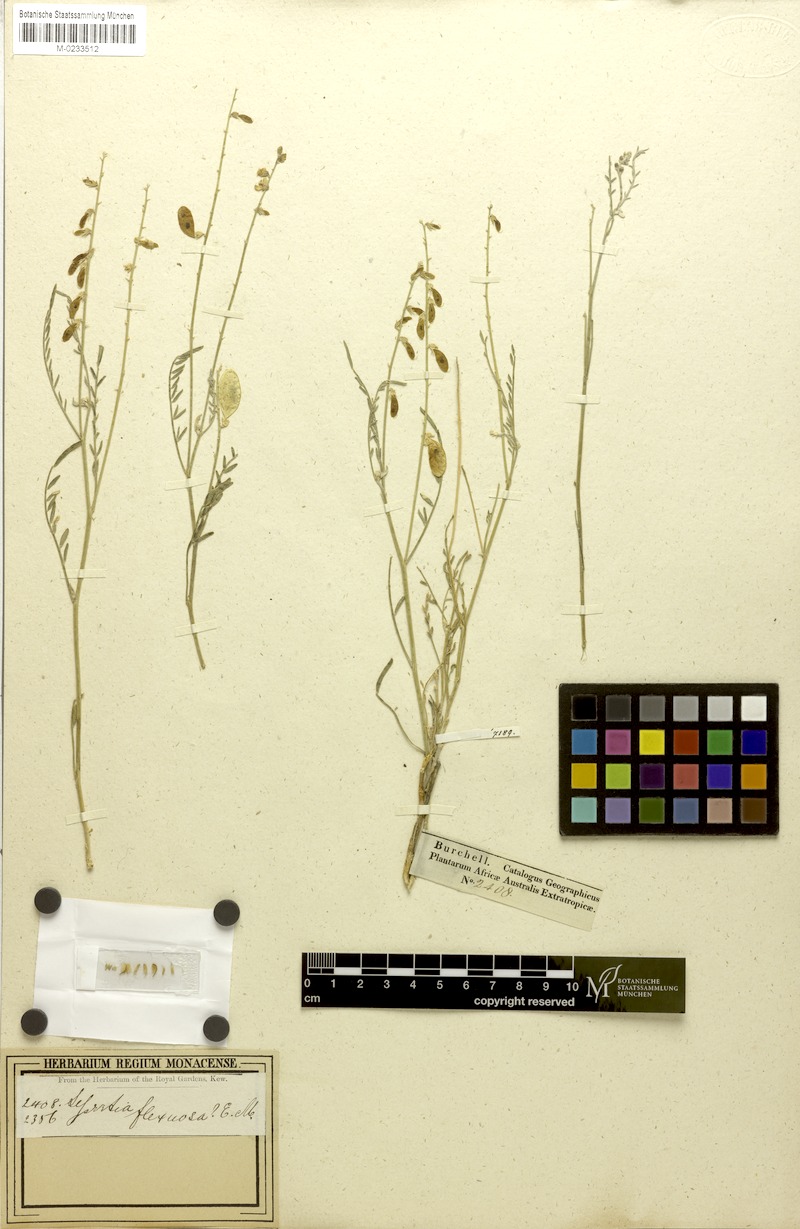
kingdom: Plantae
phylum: Tracheophyta
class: Magnoliopsida
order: Fabales
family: Fabaceae
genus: Lessertia
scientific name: Lessertia macrostachya
